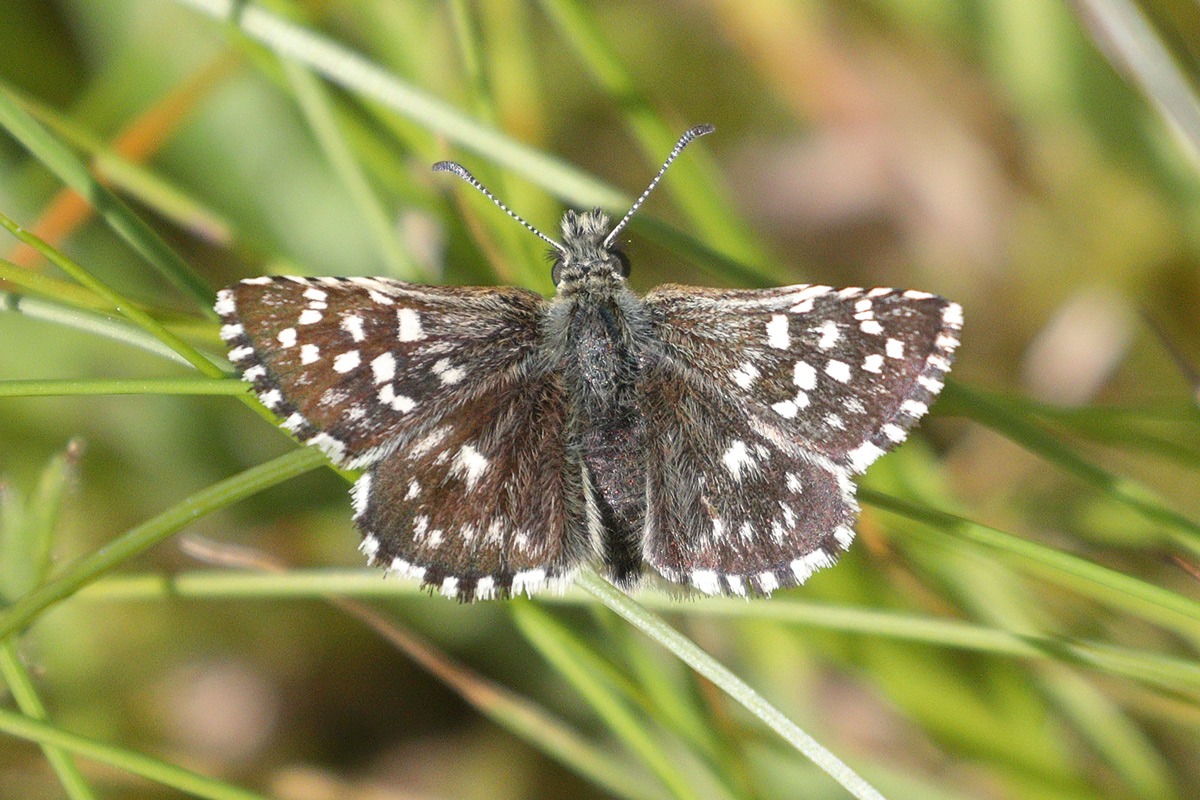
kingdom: Animalia
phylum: Arthropoda
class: Insecta
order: Lepidoptera
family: Hesperiidae
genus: Pyrgus
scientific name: Pyrgus malvae
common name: Spættet bredpande
